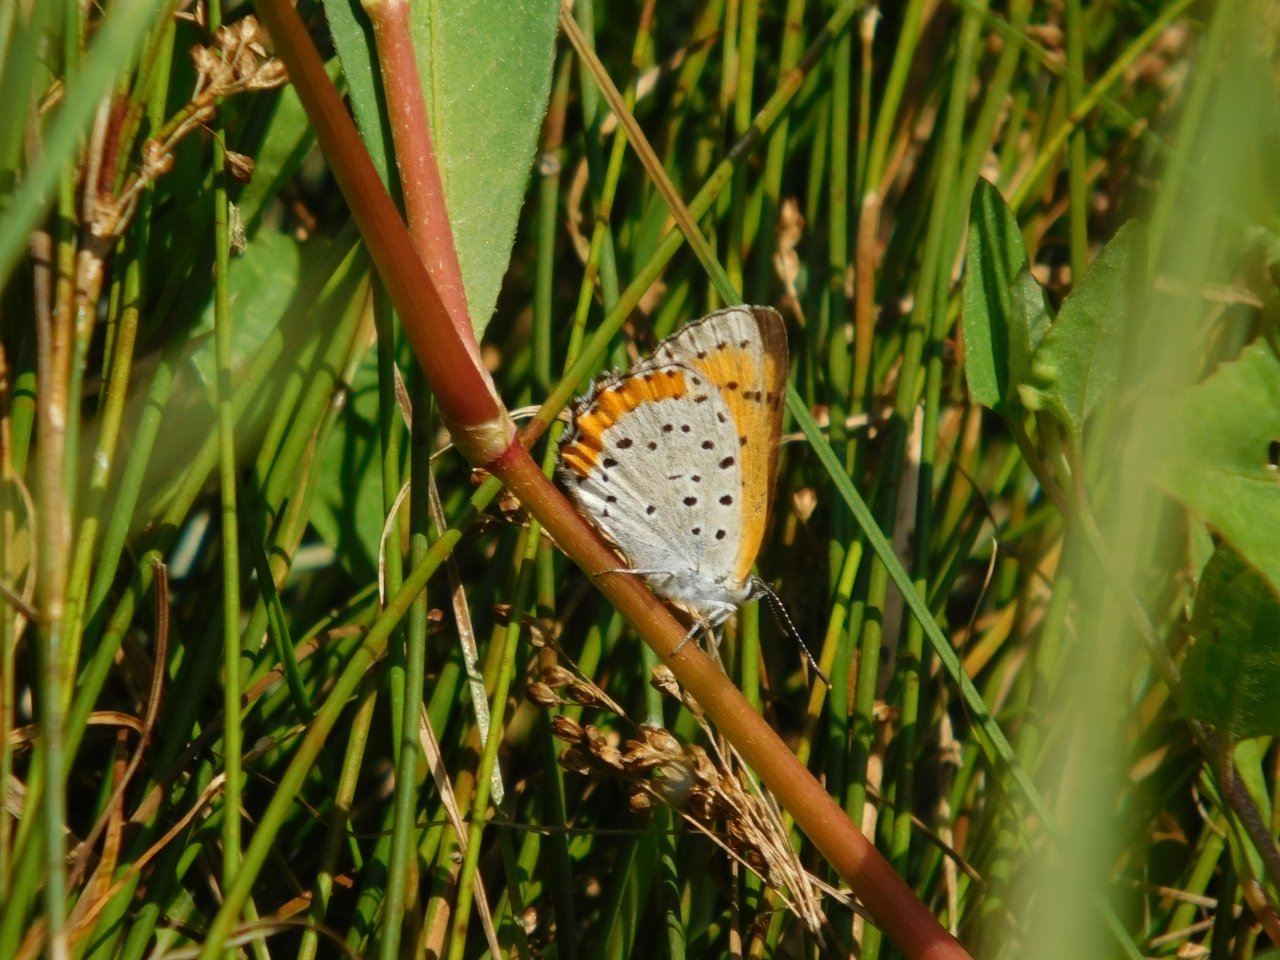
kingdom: Animalia
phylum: Arthropoda
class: Insecta
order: Lepidoptera
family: Sesiidae
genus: Sesia
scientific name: Sesia Lycaena hyllus
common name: Bronze Copper
